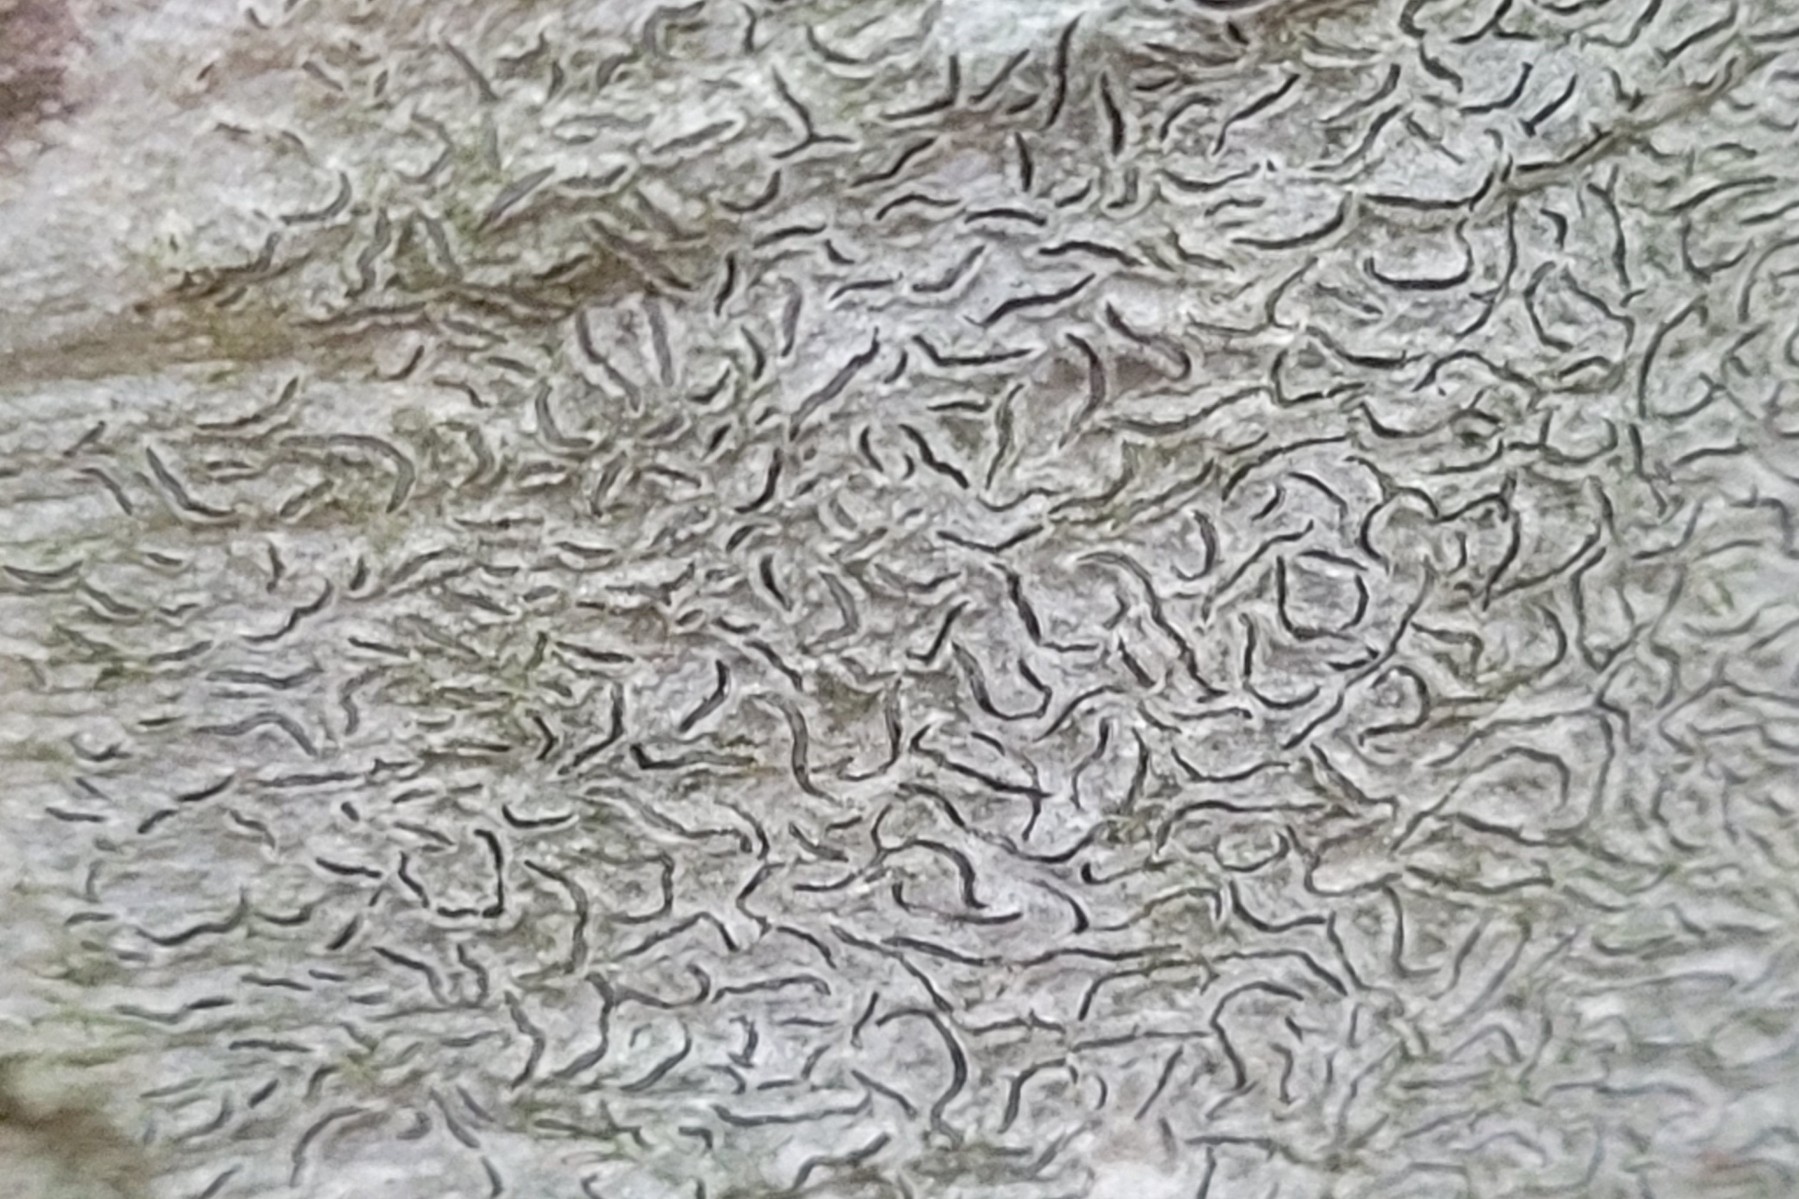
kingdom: Fungi
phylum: Ascomycota
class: Lecanoromycetes
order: Ostropales
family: Graphidaceae
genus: Graphis
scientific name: Graphis scripta
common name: almindelig skriftlav
